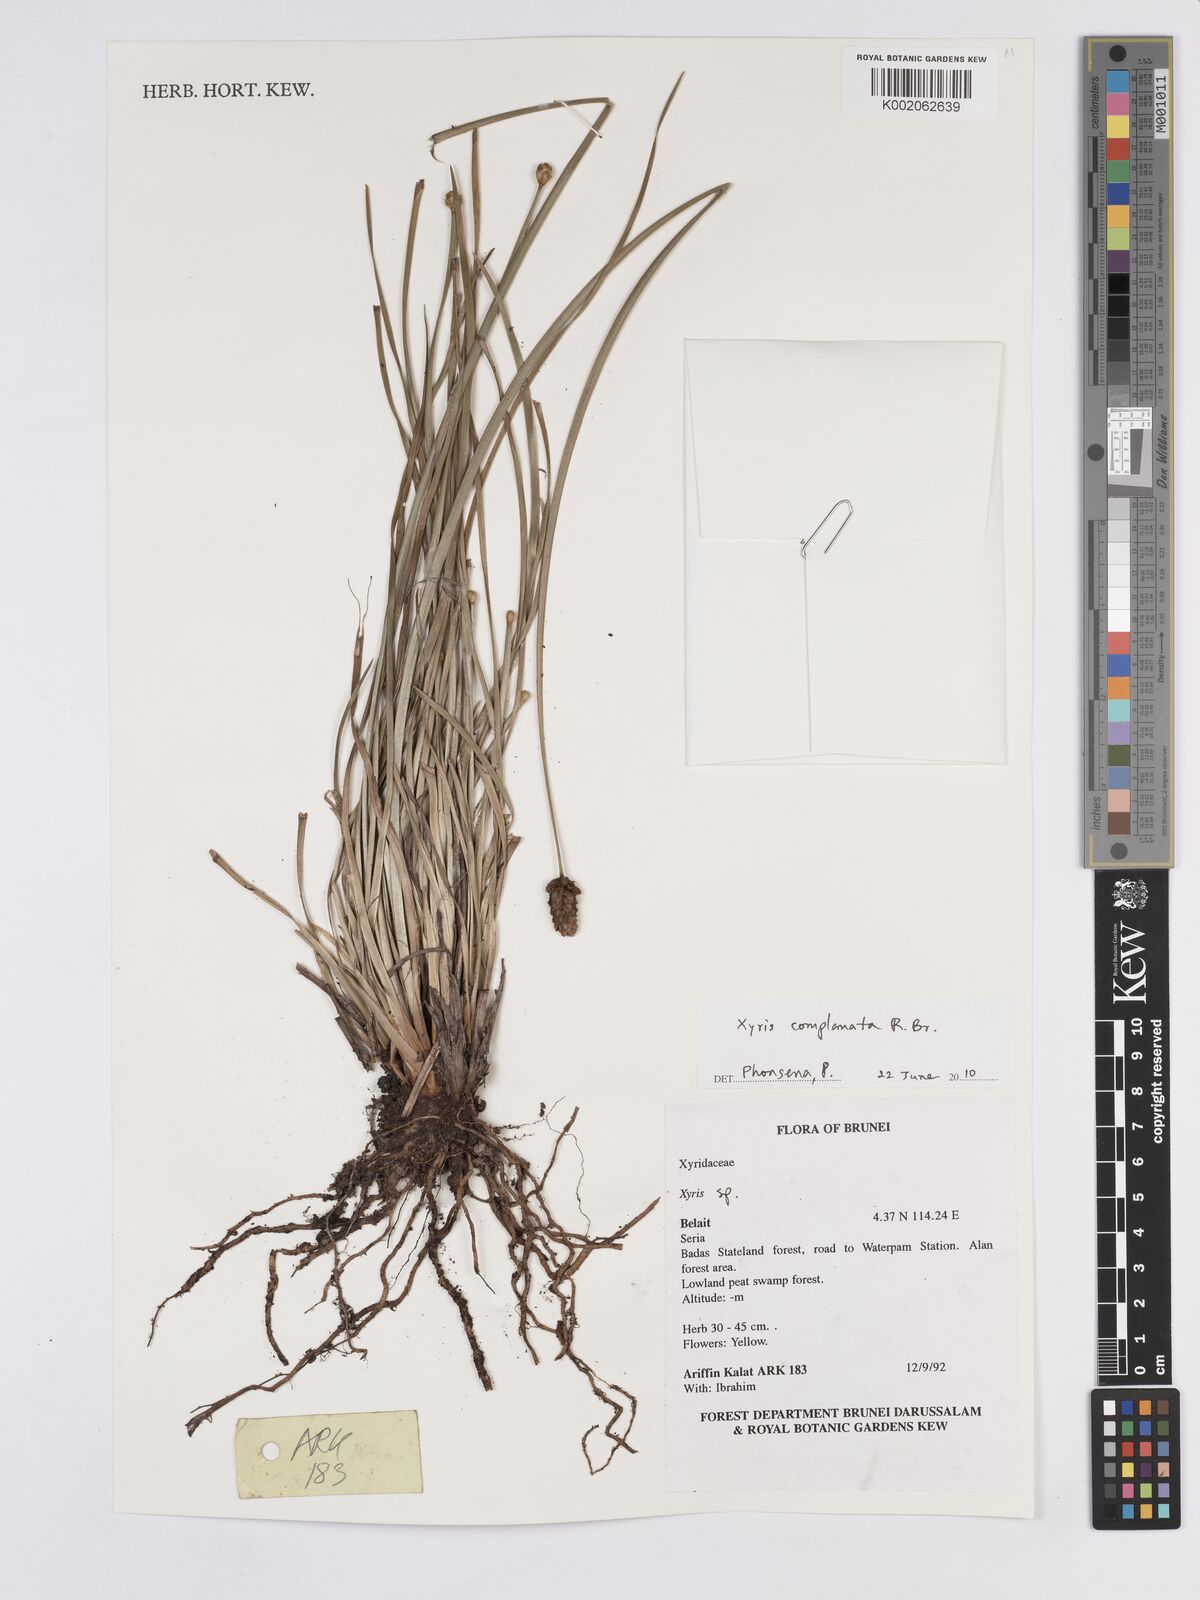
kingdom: Plantae
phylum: Tracheophyta
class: Liliopsida
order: Poales
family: Xyridaceae
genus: Xyris
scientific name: Xyris complanata
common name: Hawai'i yelloweyed grass
